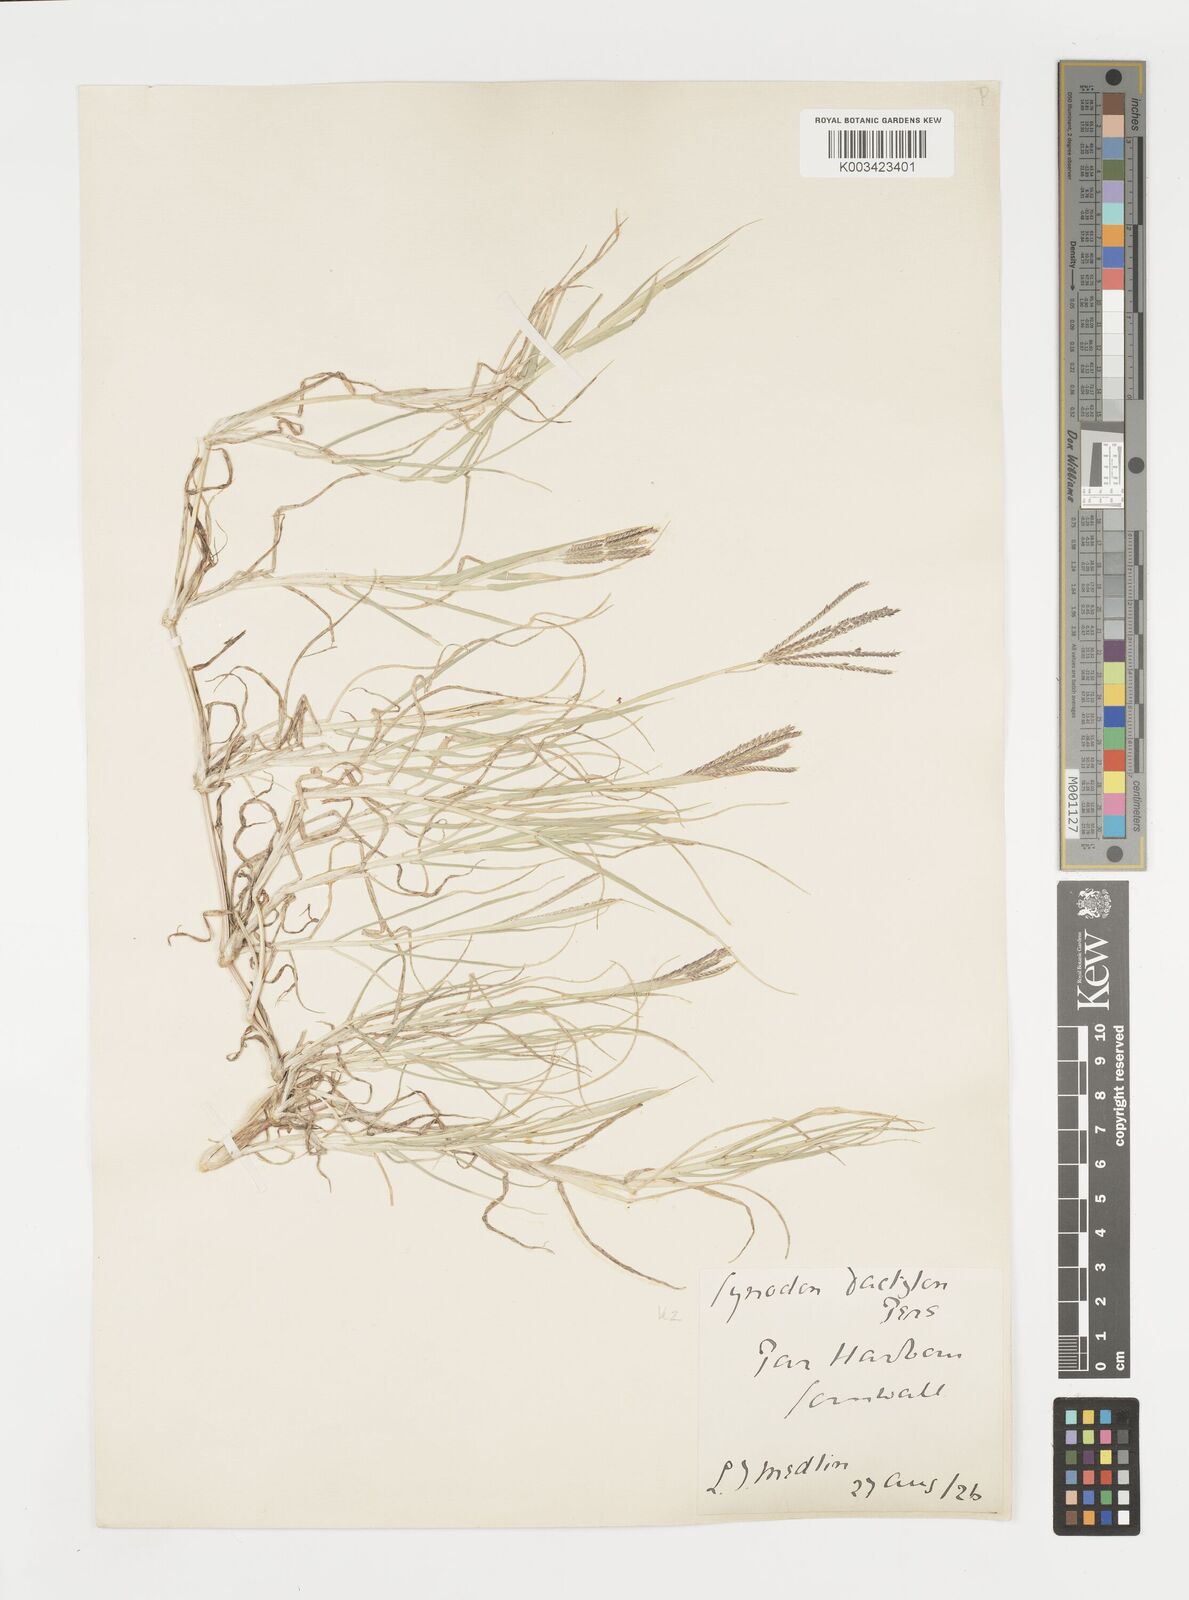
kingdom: Plantae
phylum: Tracheophyta
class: Liliopsida
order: Poales
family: Poaceae
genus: Cynodon
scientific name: Cynodon dactylon
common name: Bermuda grass
